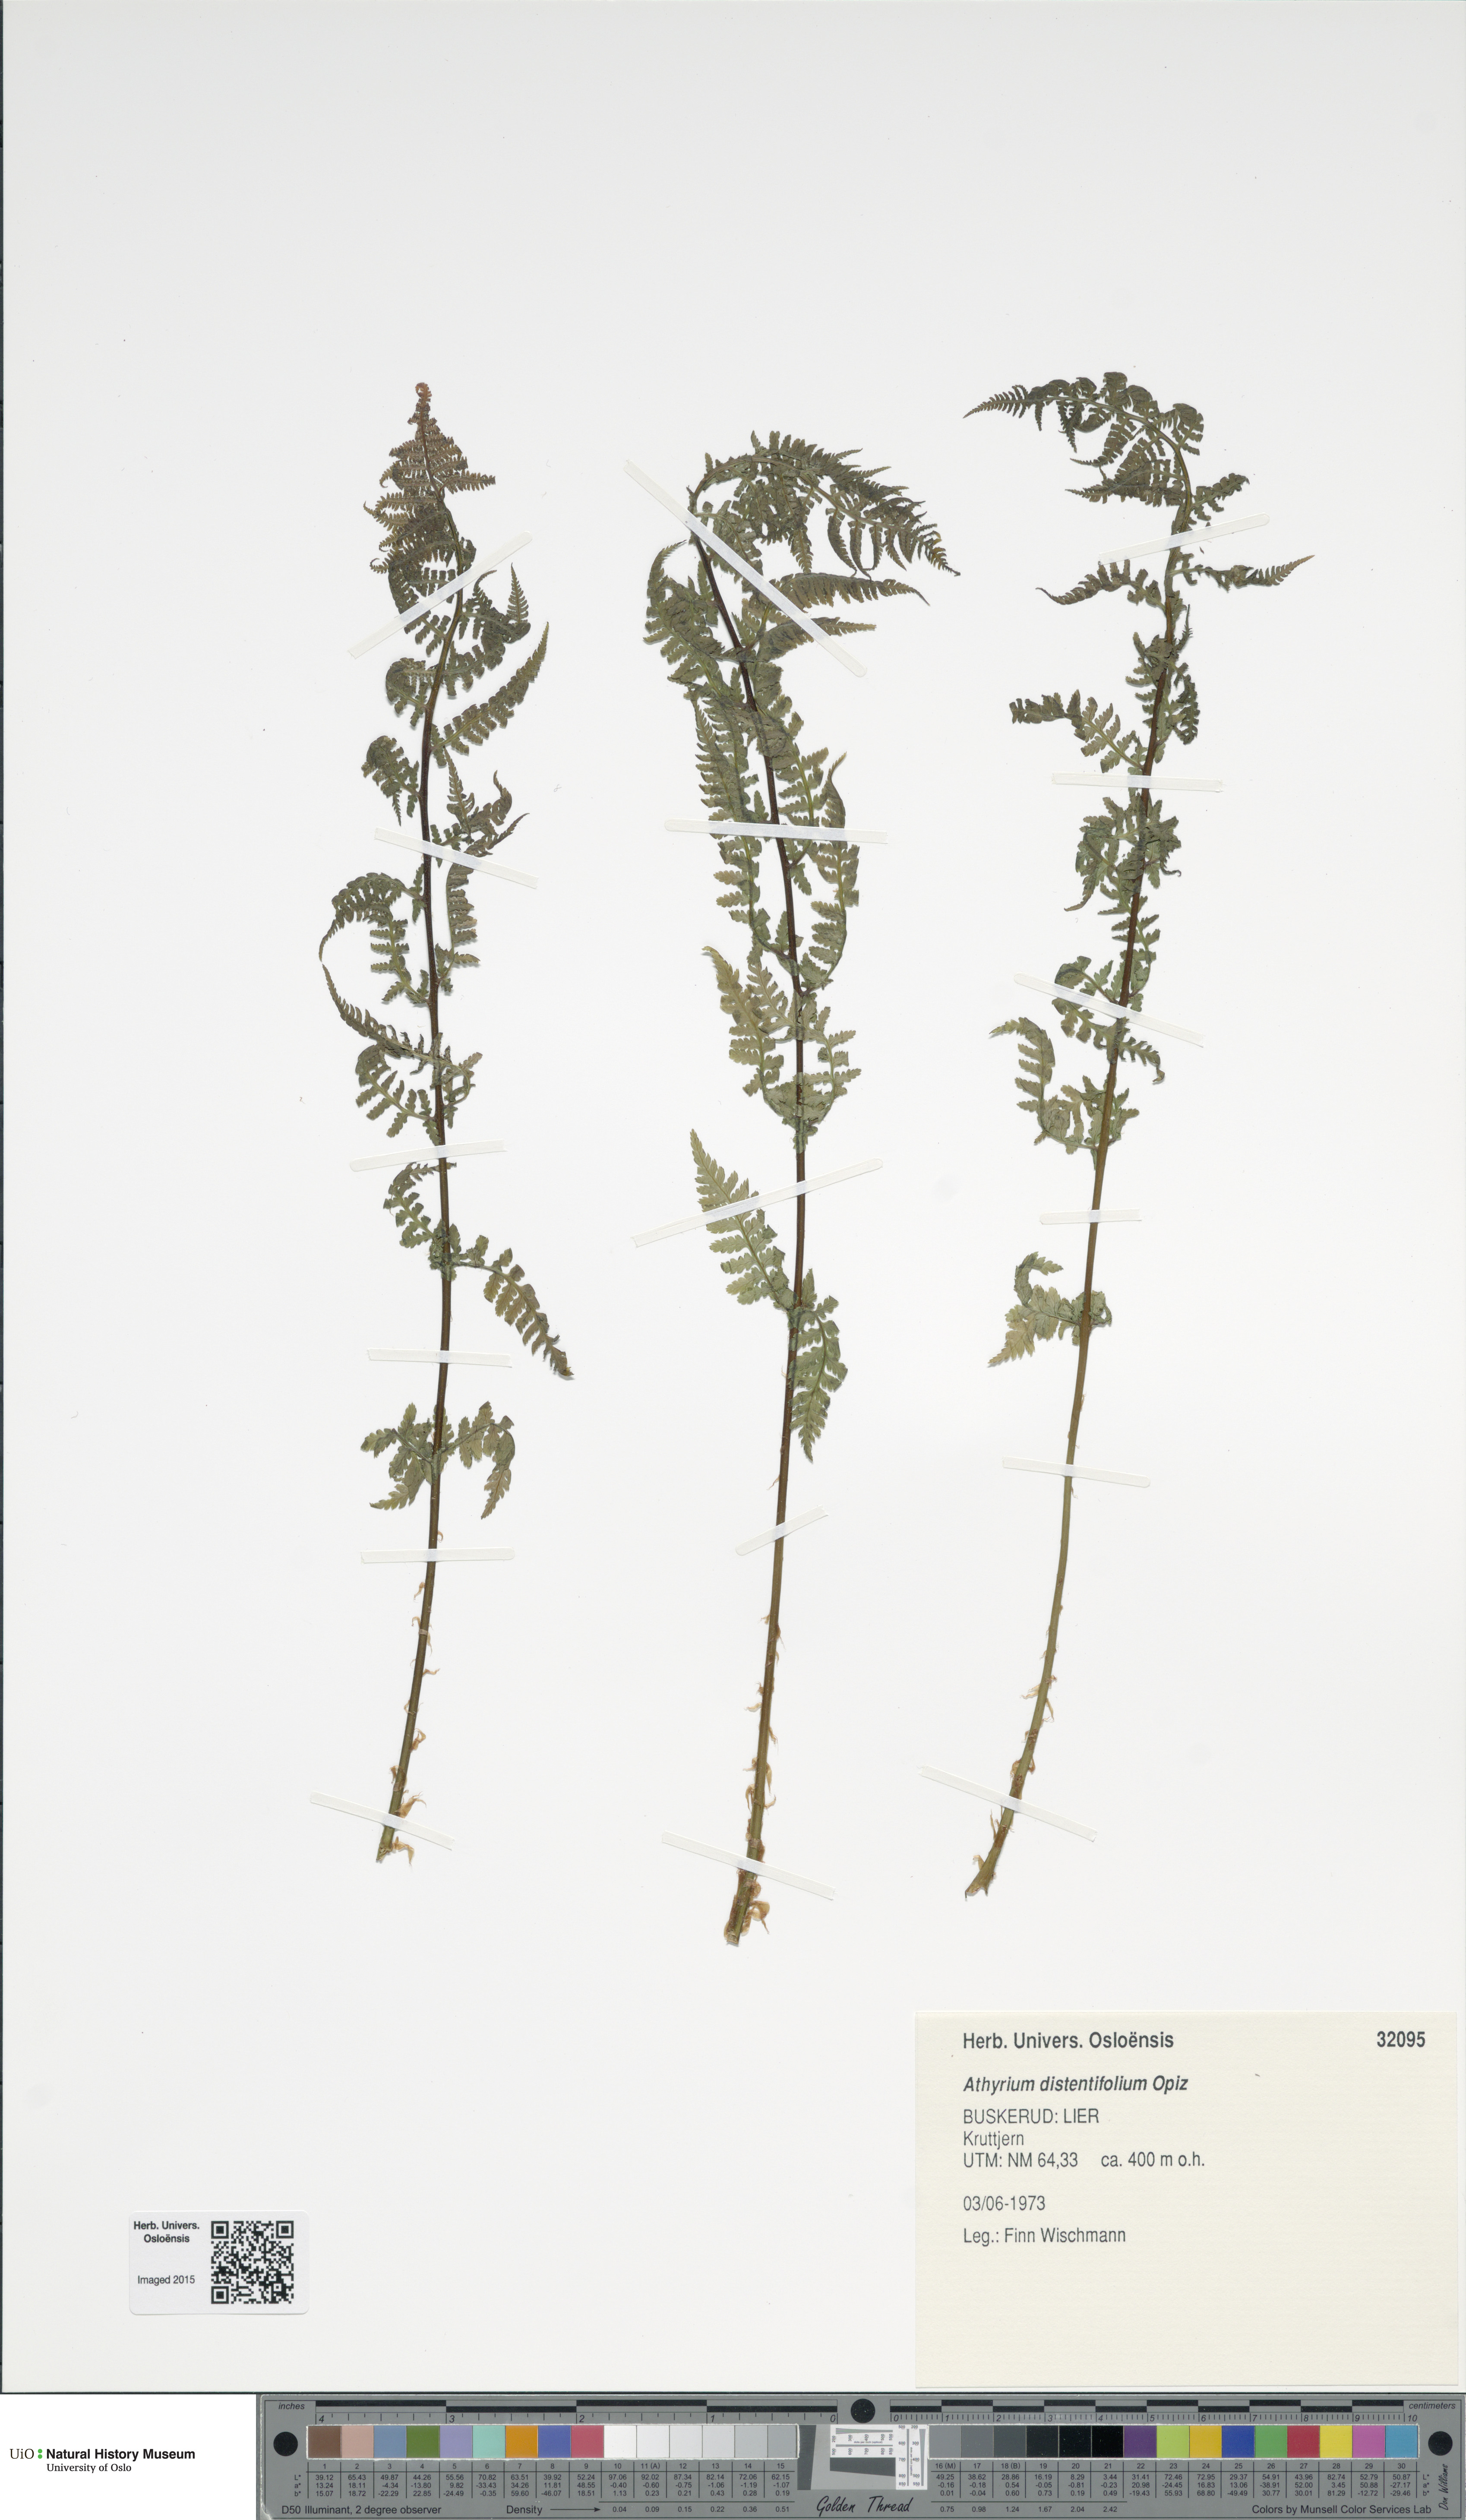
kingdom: Plantae
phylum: Tracheophyta
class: Polypodiopsida
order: Polypodiales
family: Athyriaceae
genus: Pseudathyrium
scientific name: Pseudathyrium alpestre
